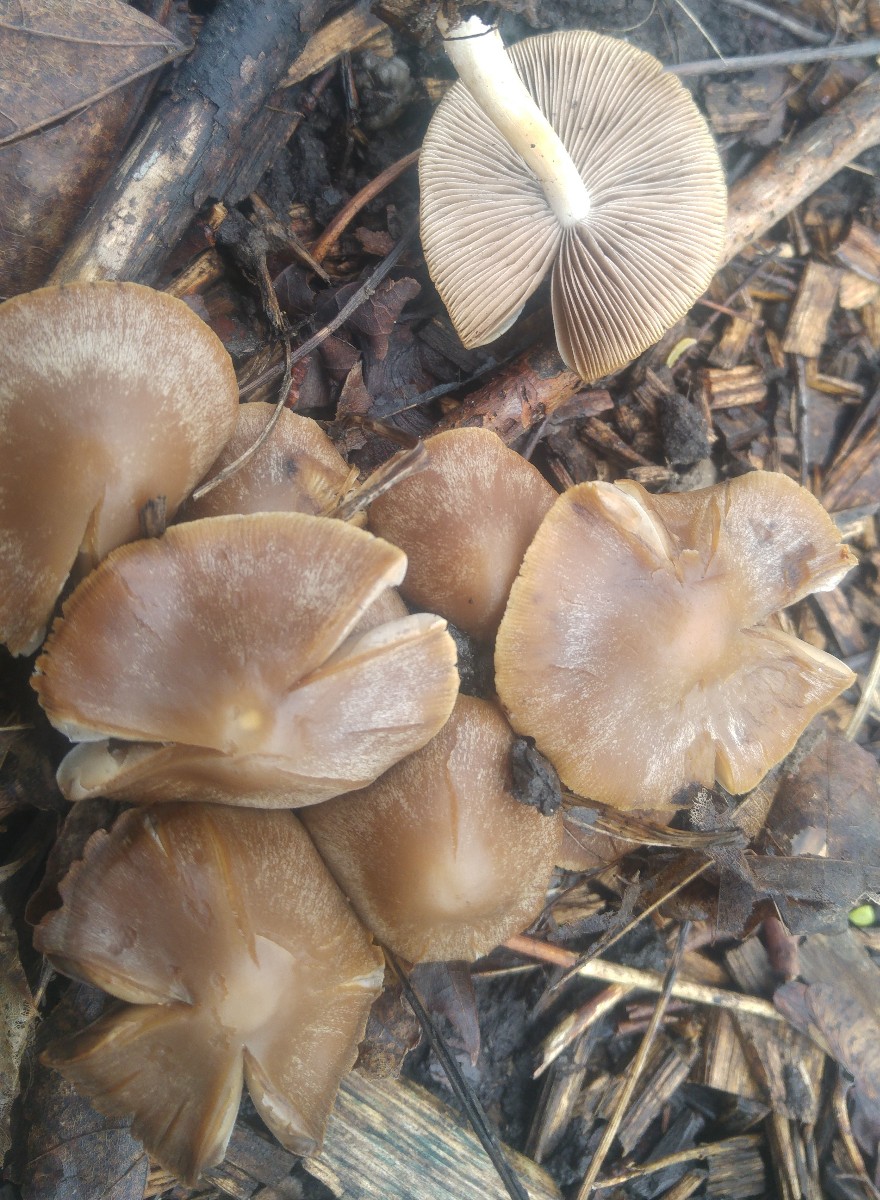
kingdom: Fungi
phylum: Basidiomycota
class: Agaricomycetes
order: Agaricales
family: Psathyrellaceae
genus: Psathyrella
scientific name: Psathyrella
